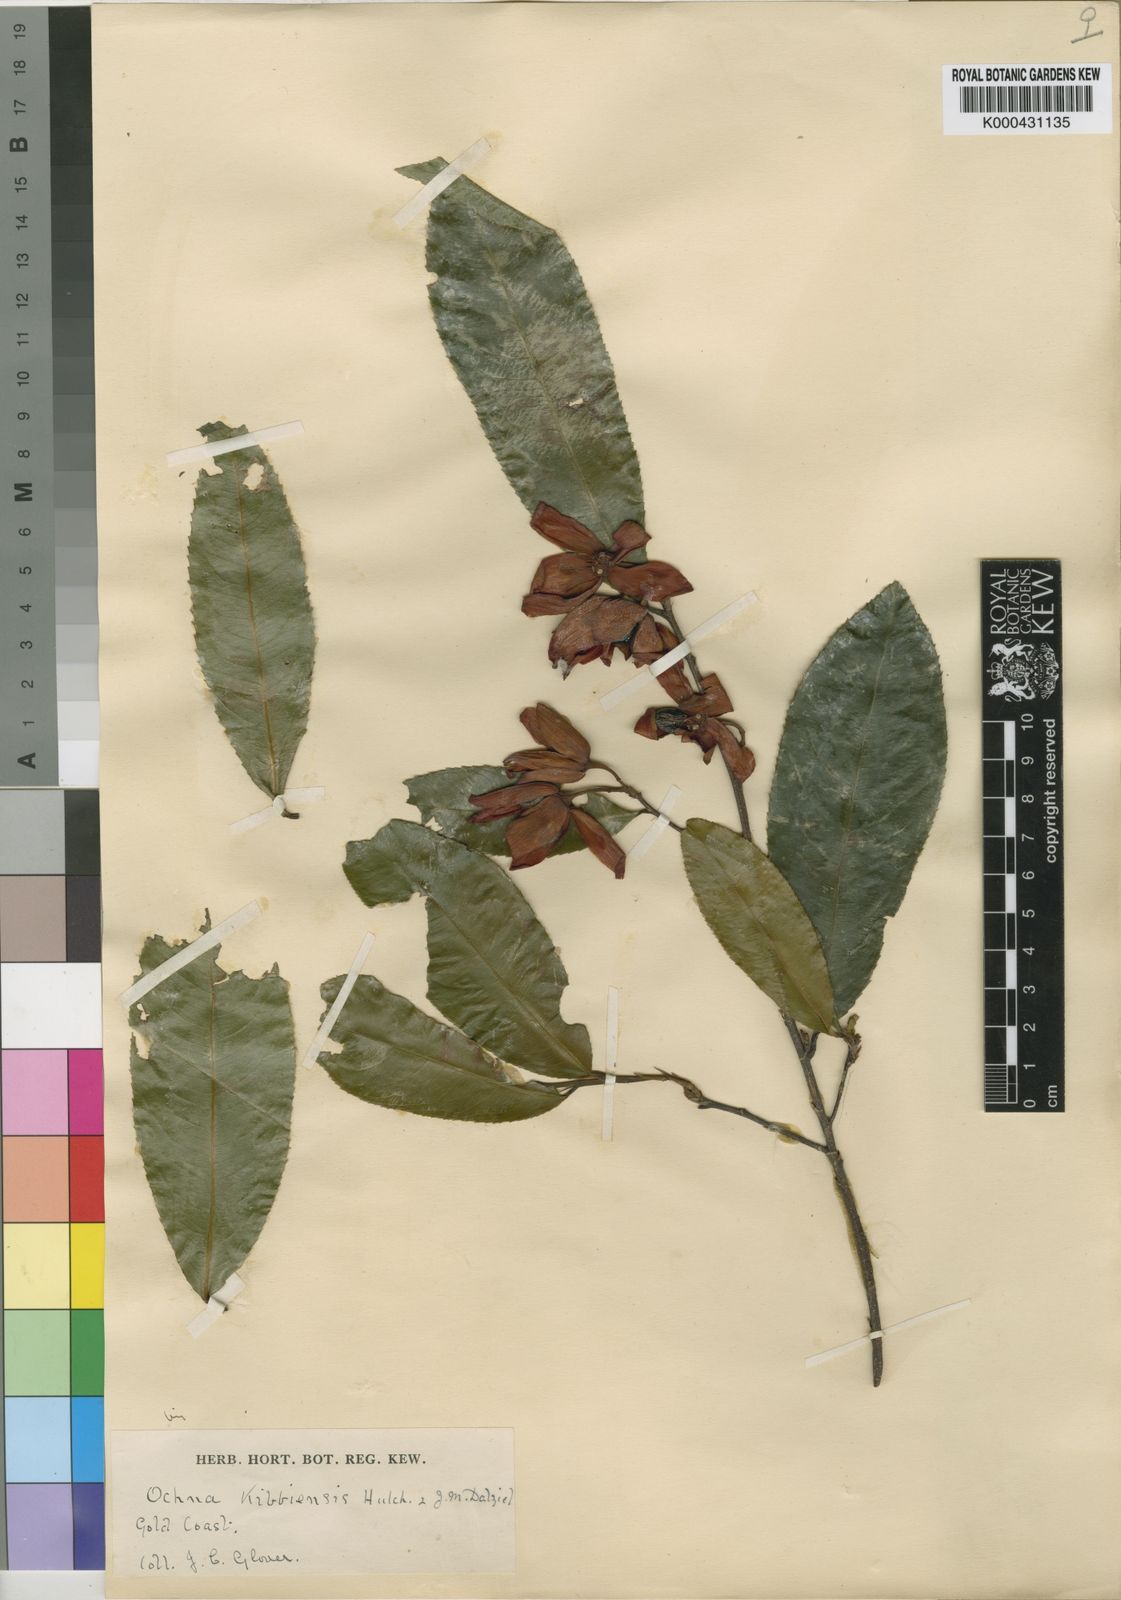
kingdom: Plantae
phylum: Tracheophyta
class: Magnoliopsida
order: Malpighiales
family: Ochnaceae
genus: Ochna
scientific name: Ochna kibbiensis
